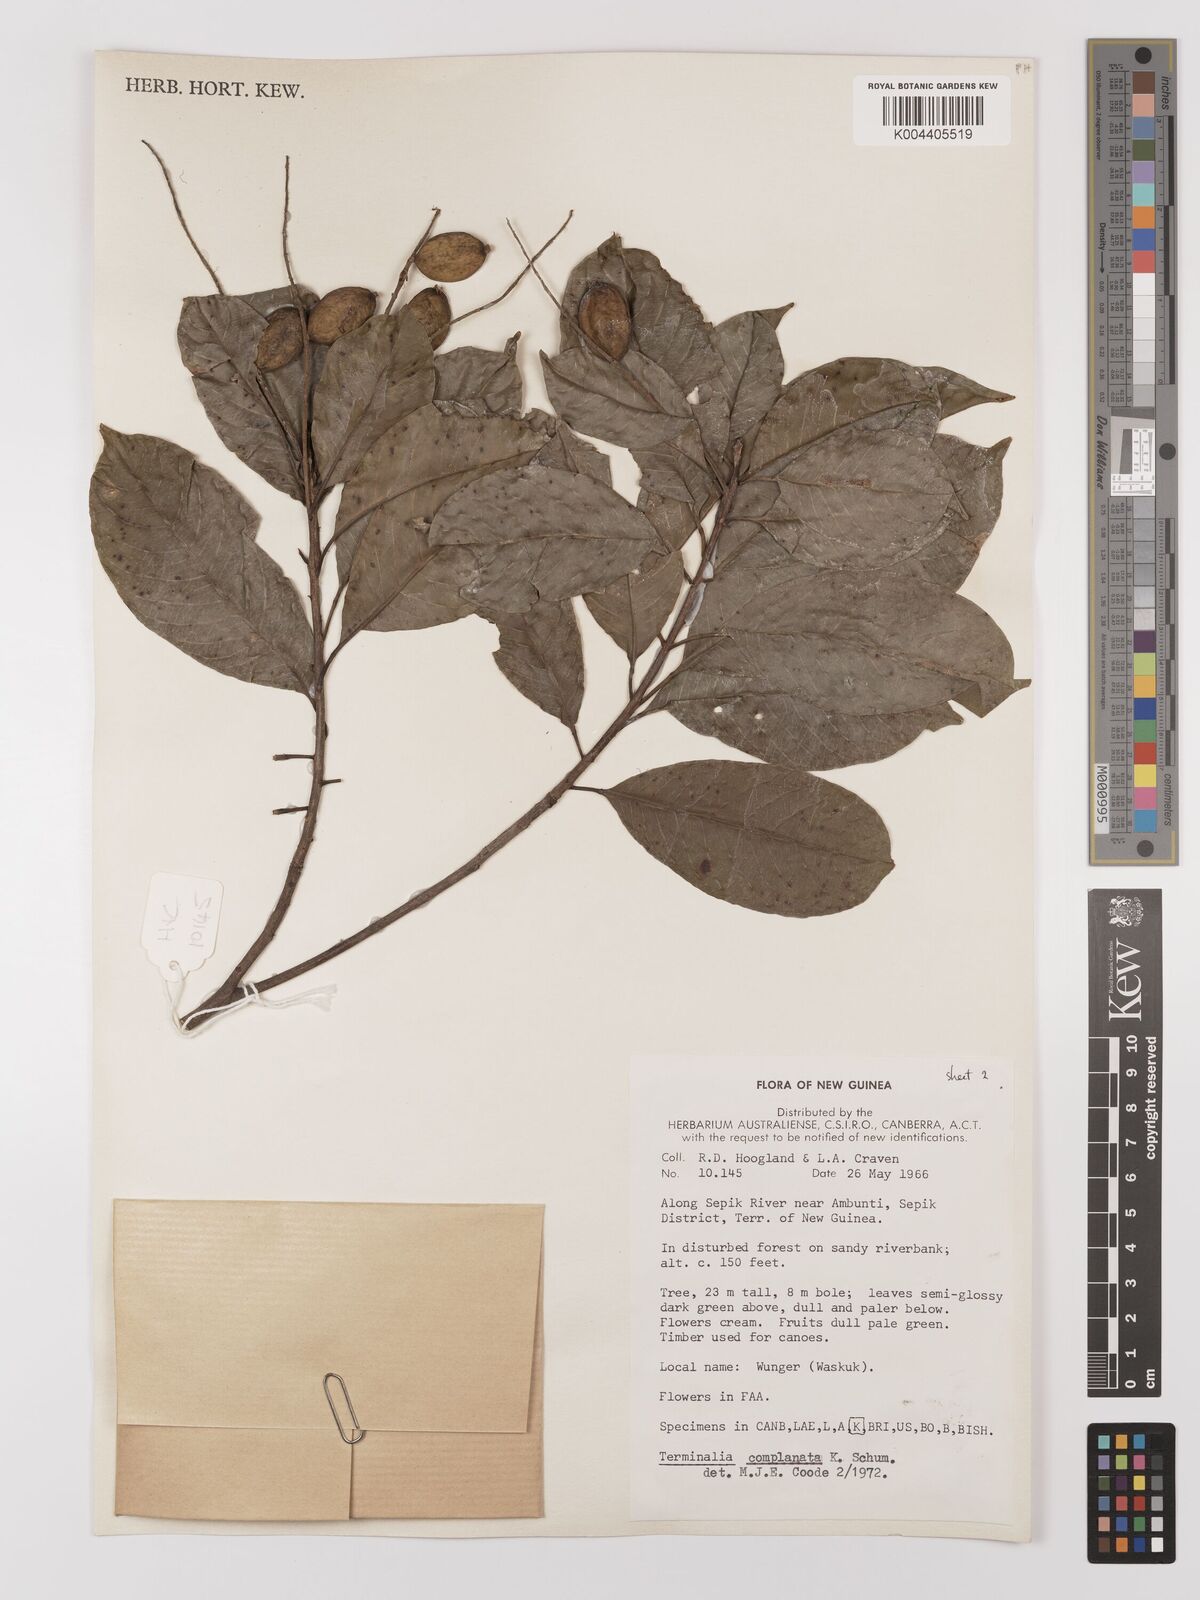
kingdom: Plantae
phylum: Tracheophyta
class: Magnoliopsida
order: Myrtales
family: Combretaceae
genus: Terminalia
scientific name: Terminalia complanata
